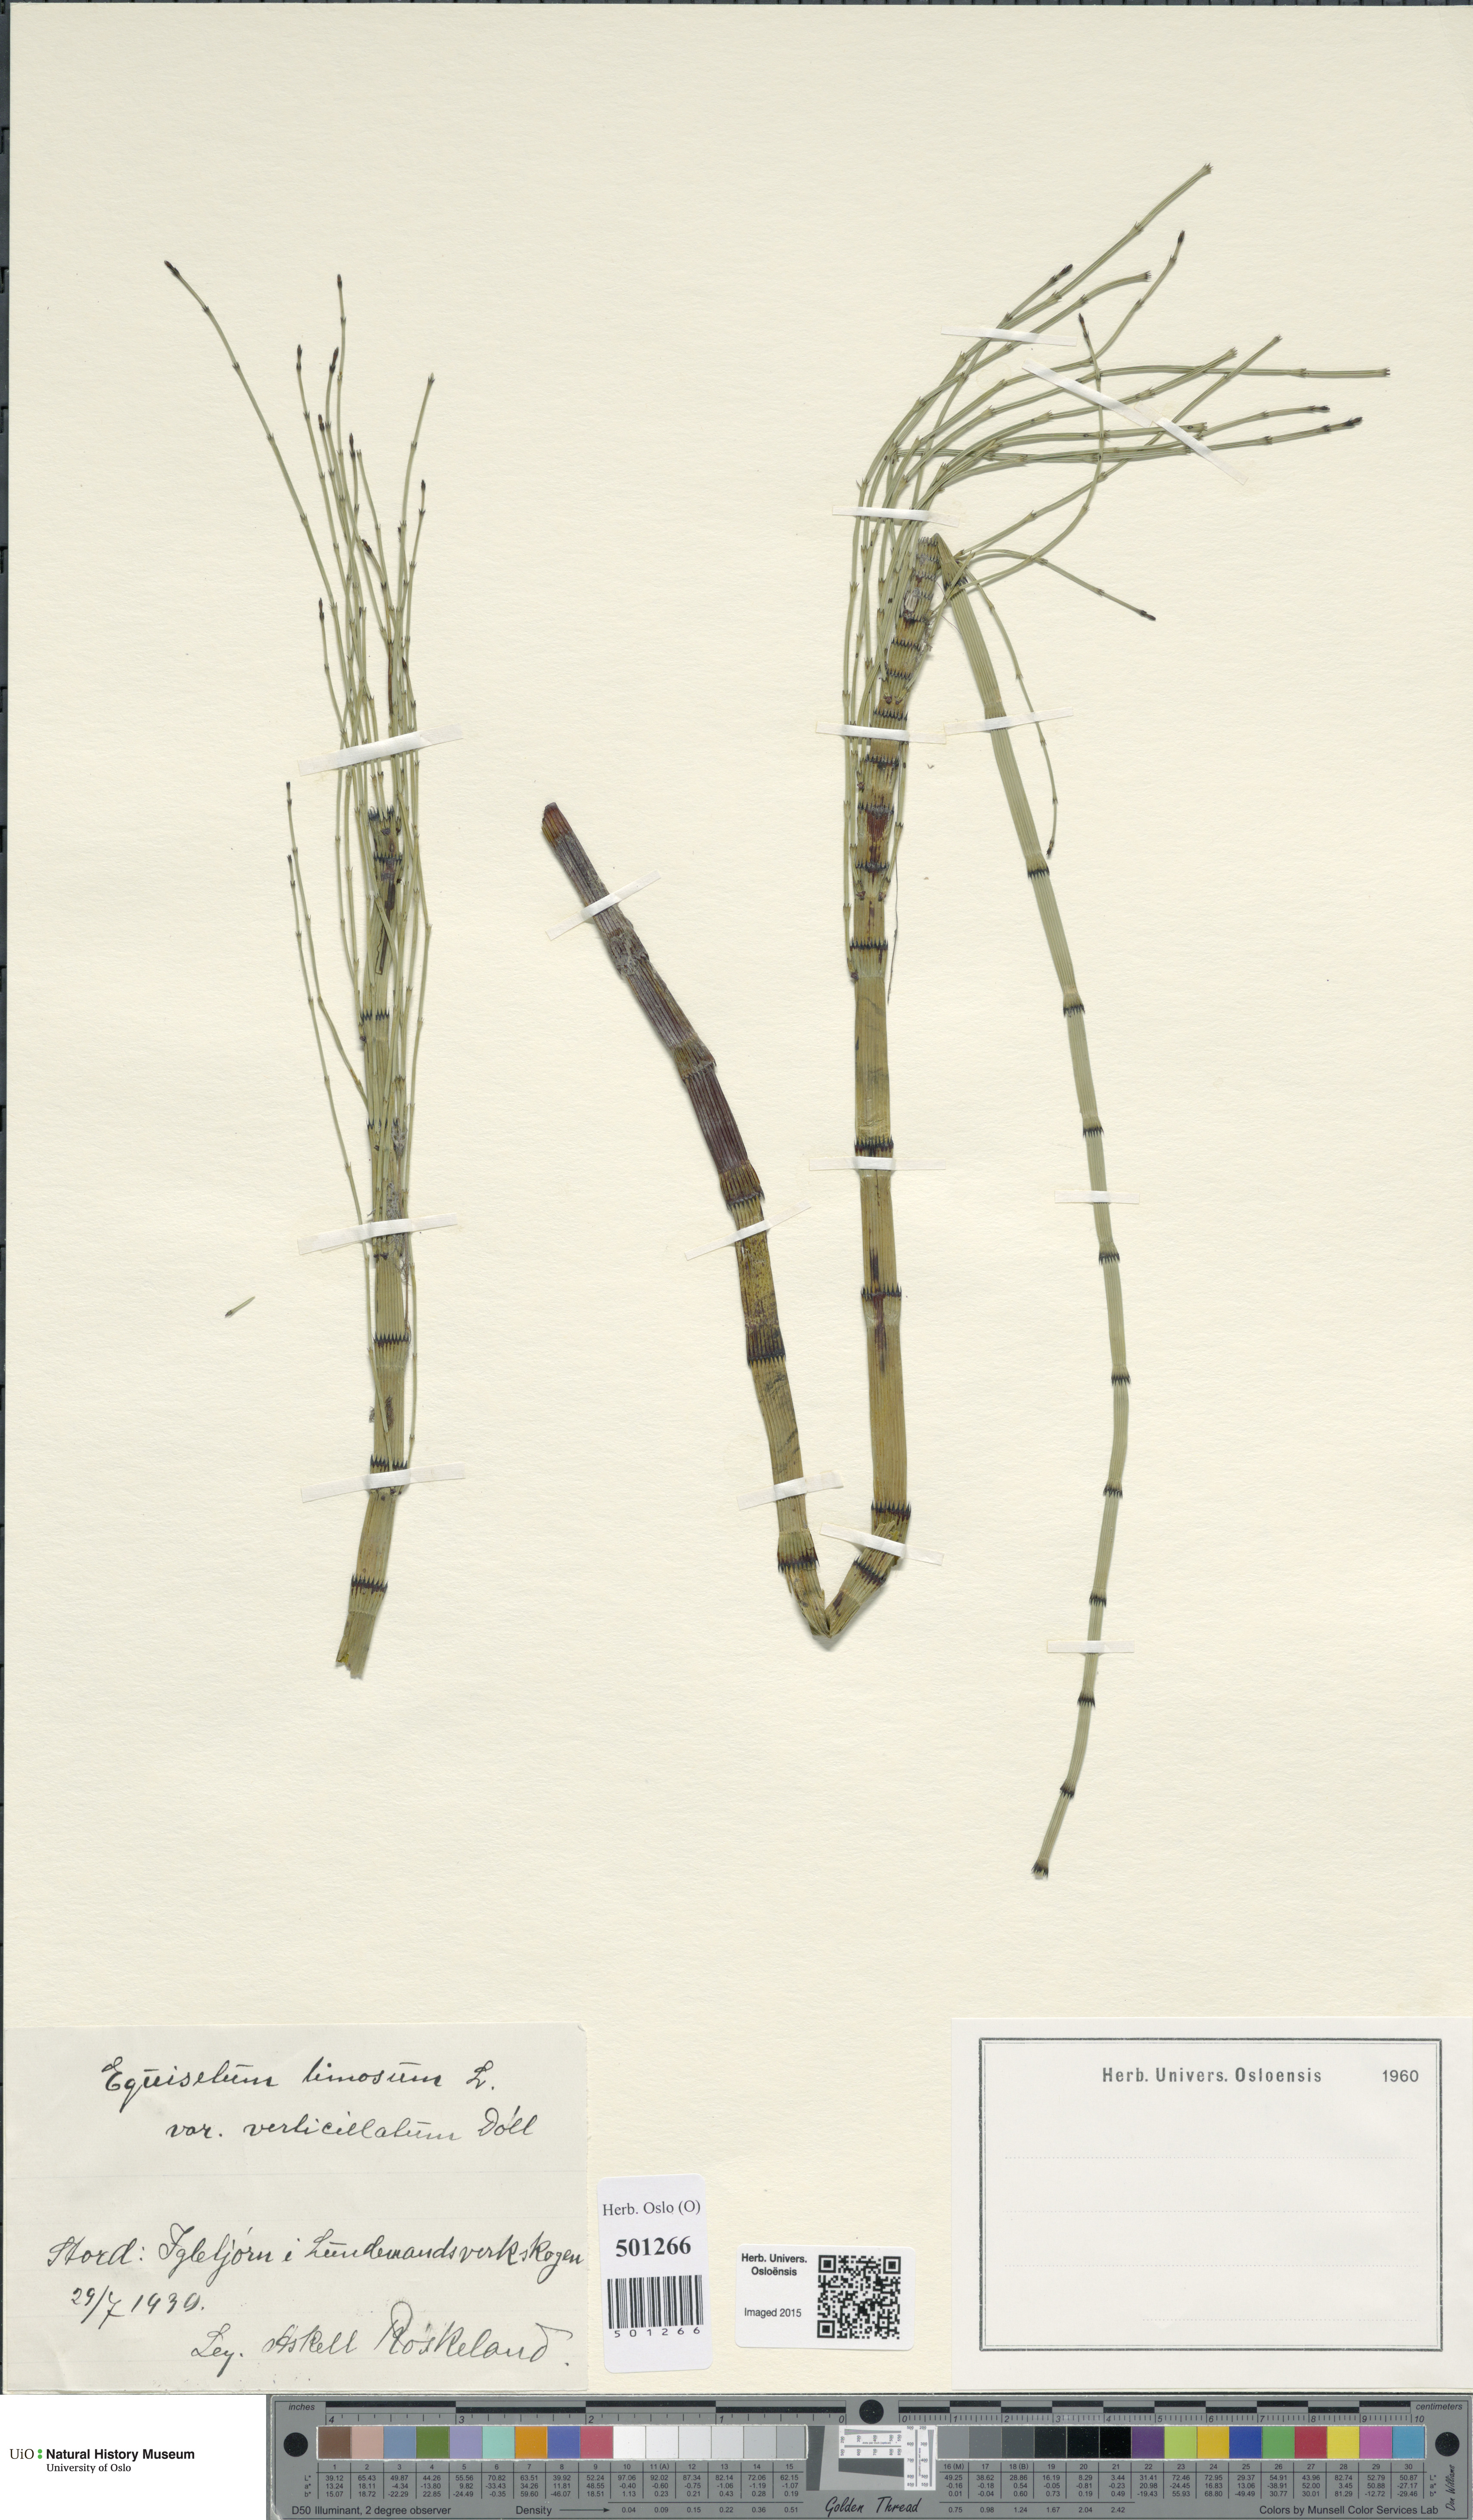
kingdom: Plantae
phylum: Tracheophyta
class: Polypodiopsida
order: Equisetales
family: Equisetaceae
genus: Equisetum
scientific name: Equisetum fluviatile
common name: Water horsetail
